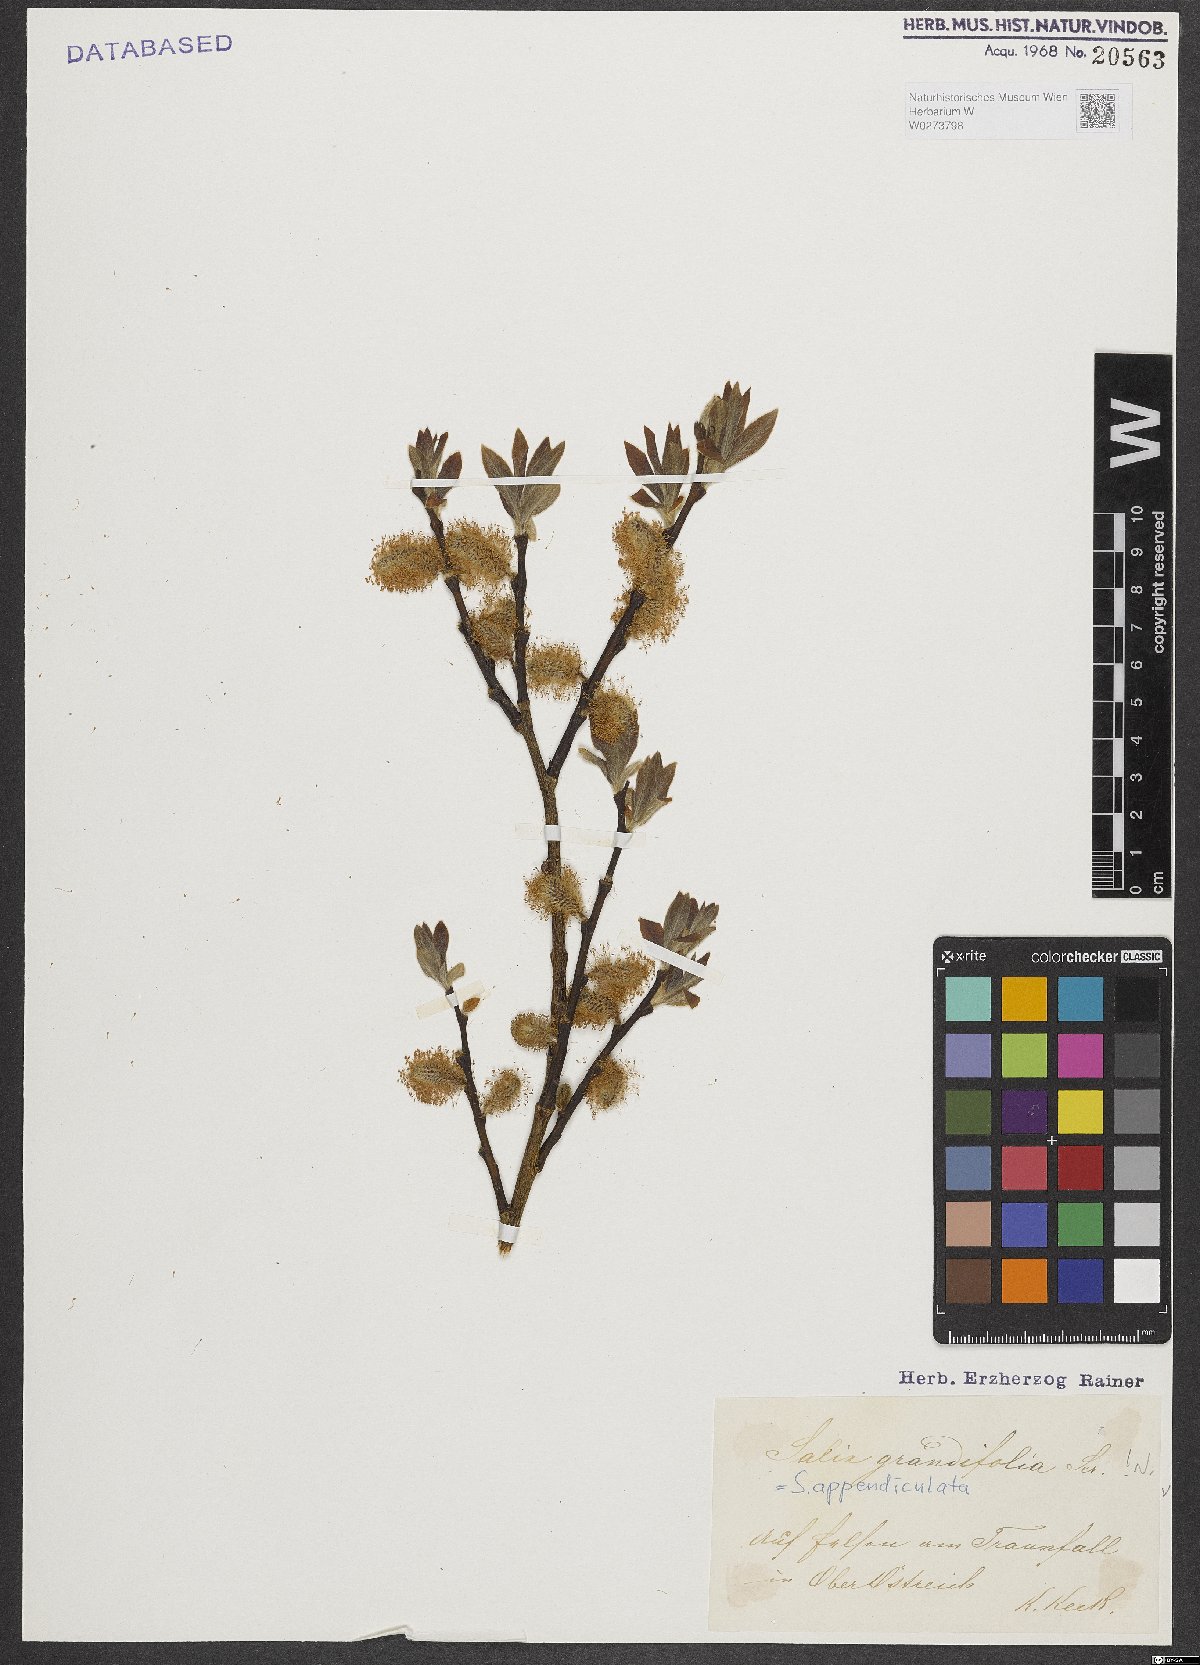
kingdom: Plantae
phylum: Tracheophyta
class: Magnoliopsida
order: Malpighiales
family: Salicaceae
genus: Salix
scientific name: Salix appendiculata
